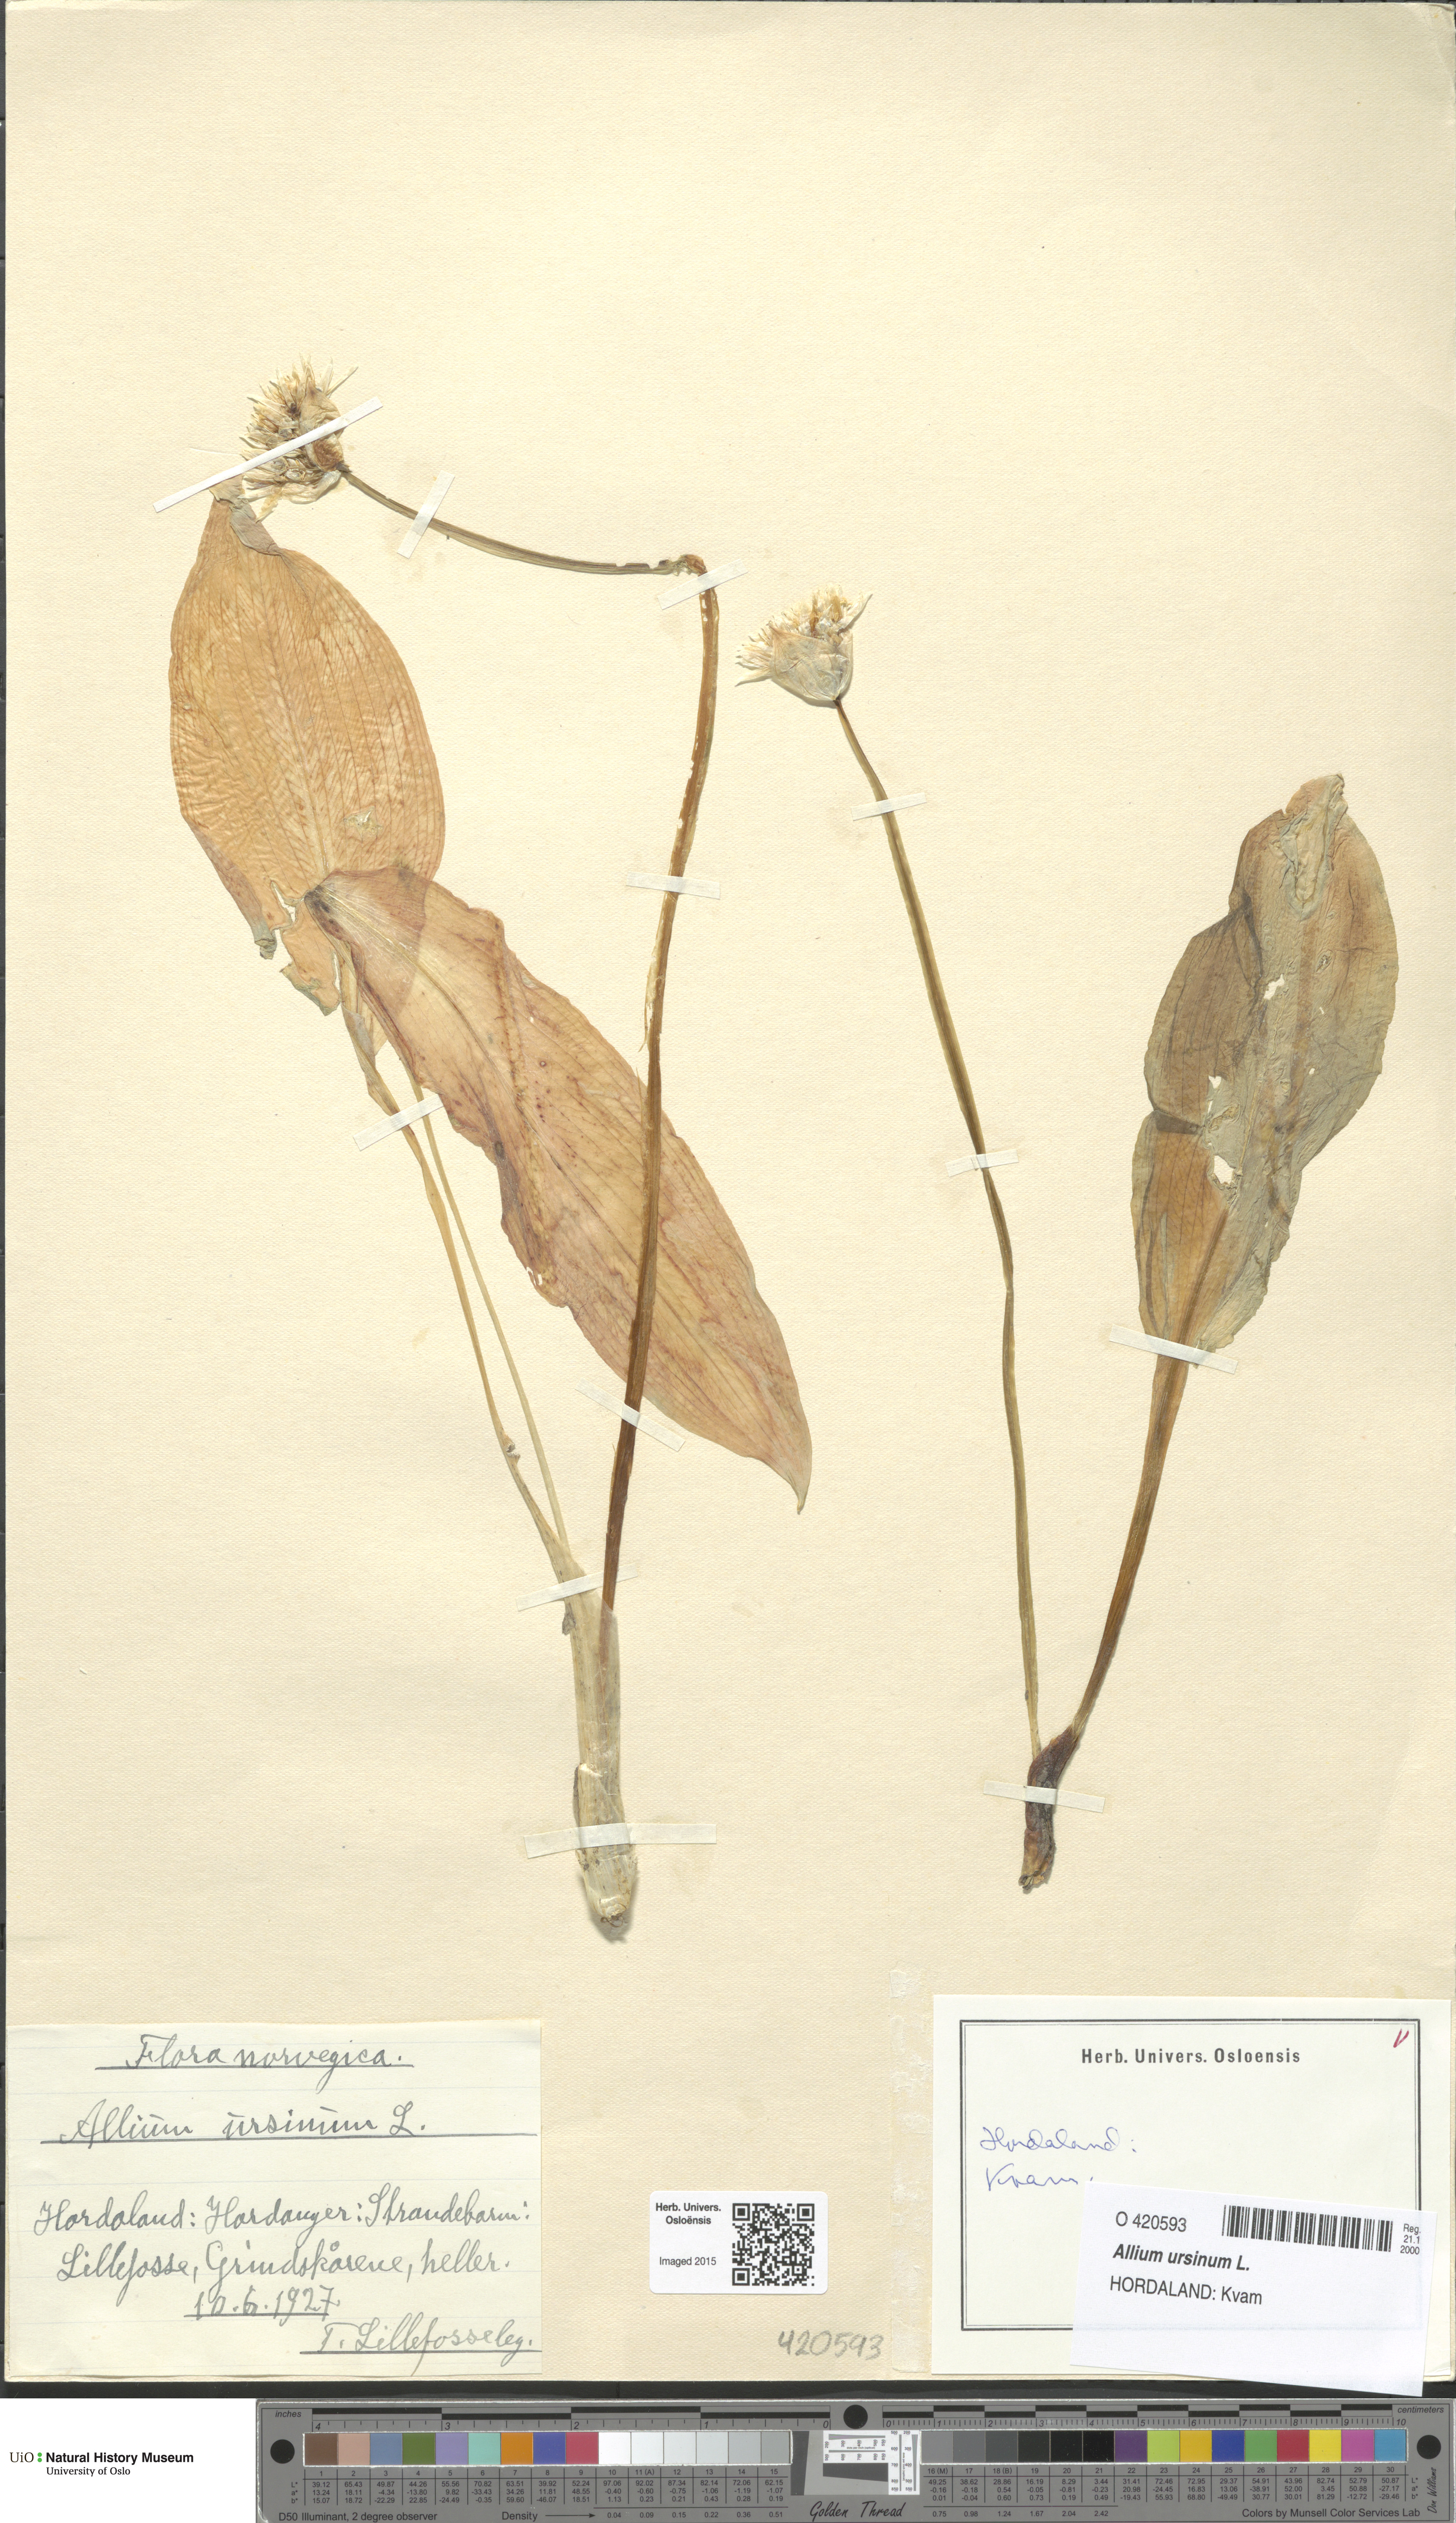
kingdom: Plantae
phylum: Tracheophyta
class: Liliopsida
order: Asparagales
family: Amaryllidaceae
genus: Allium
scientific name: Allium ursinum
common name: Ramsons
